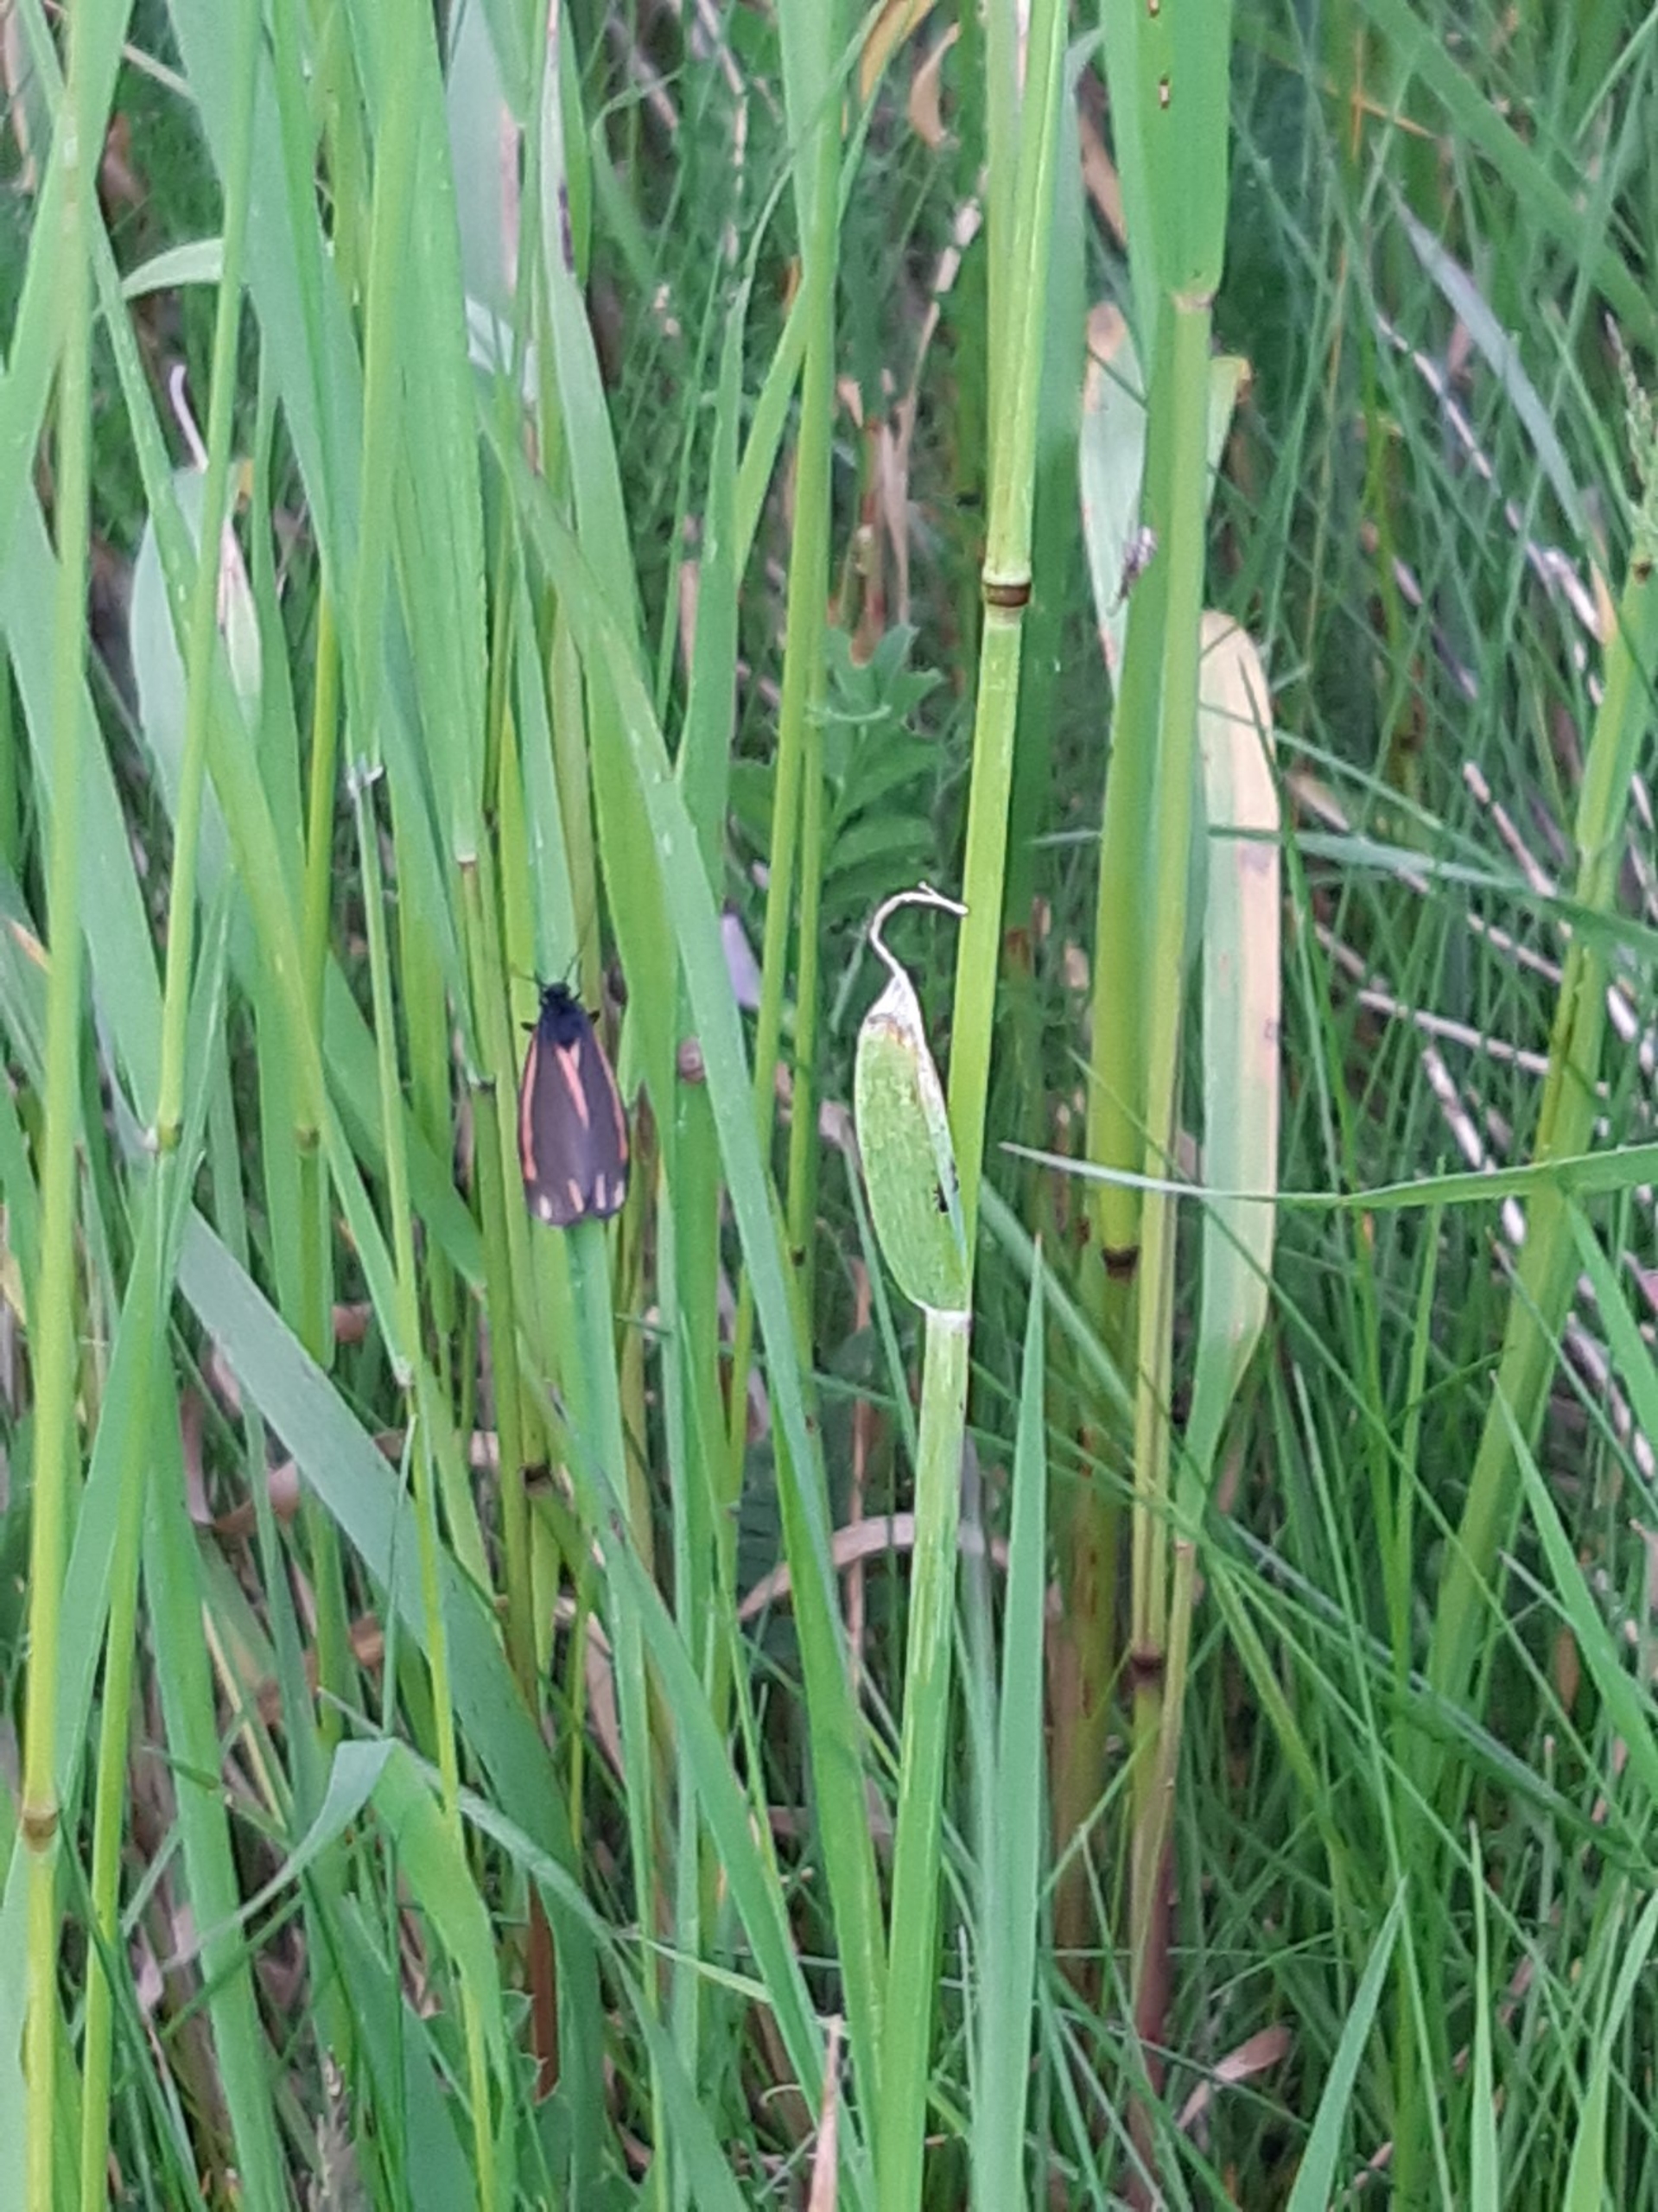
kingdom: Animalia
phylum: Arthropoda
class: Insecta
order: Lepidoptera
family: Erebidae
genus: Tyria
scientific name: Tyria jacobaeae
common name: Blodplet
